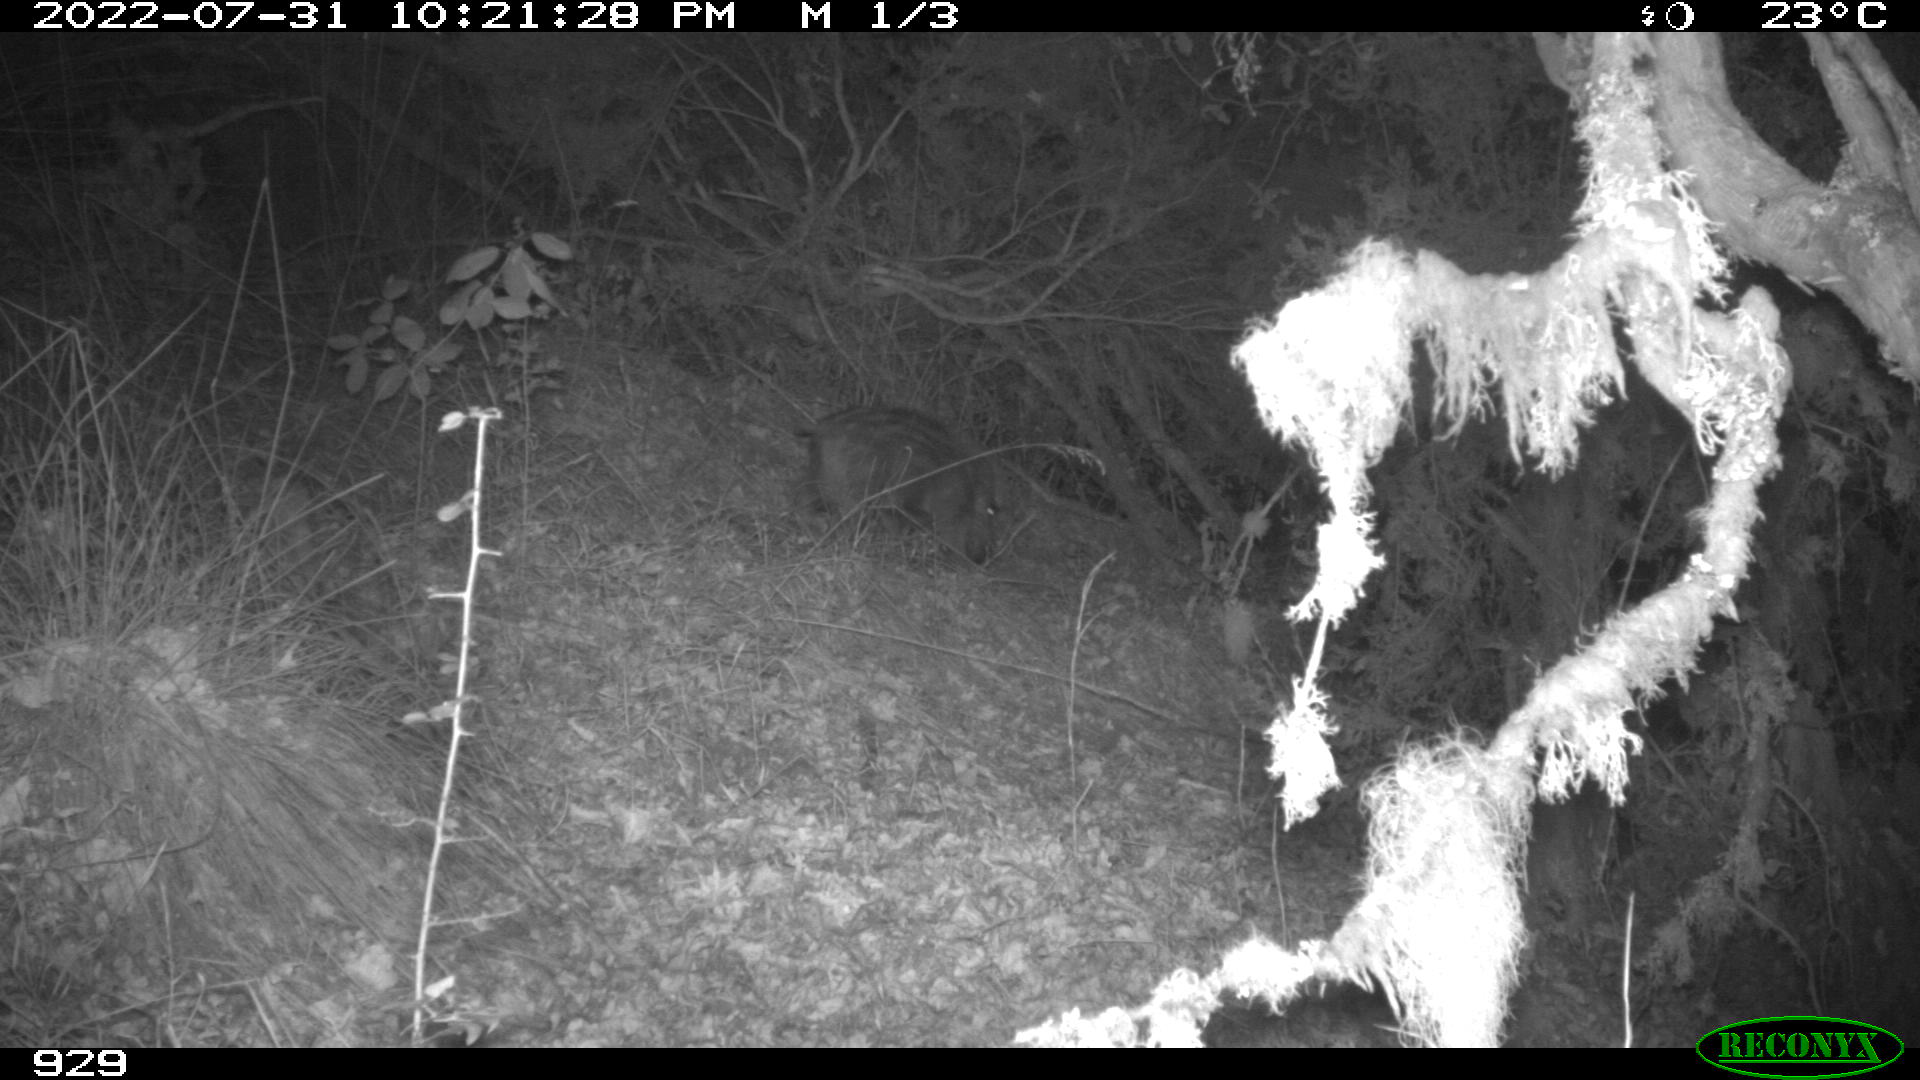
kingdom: Animalia
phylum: Chordata
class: Mammalia
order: Artiodactyla
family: Suidae
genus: Sus
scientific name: Sus scrofa
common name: Wild boar
